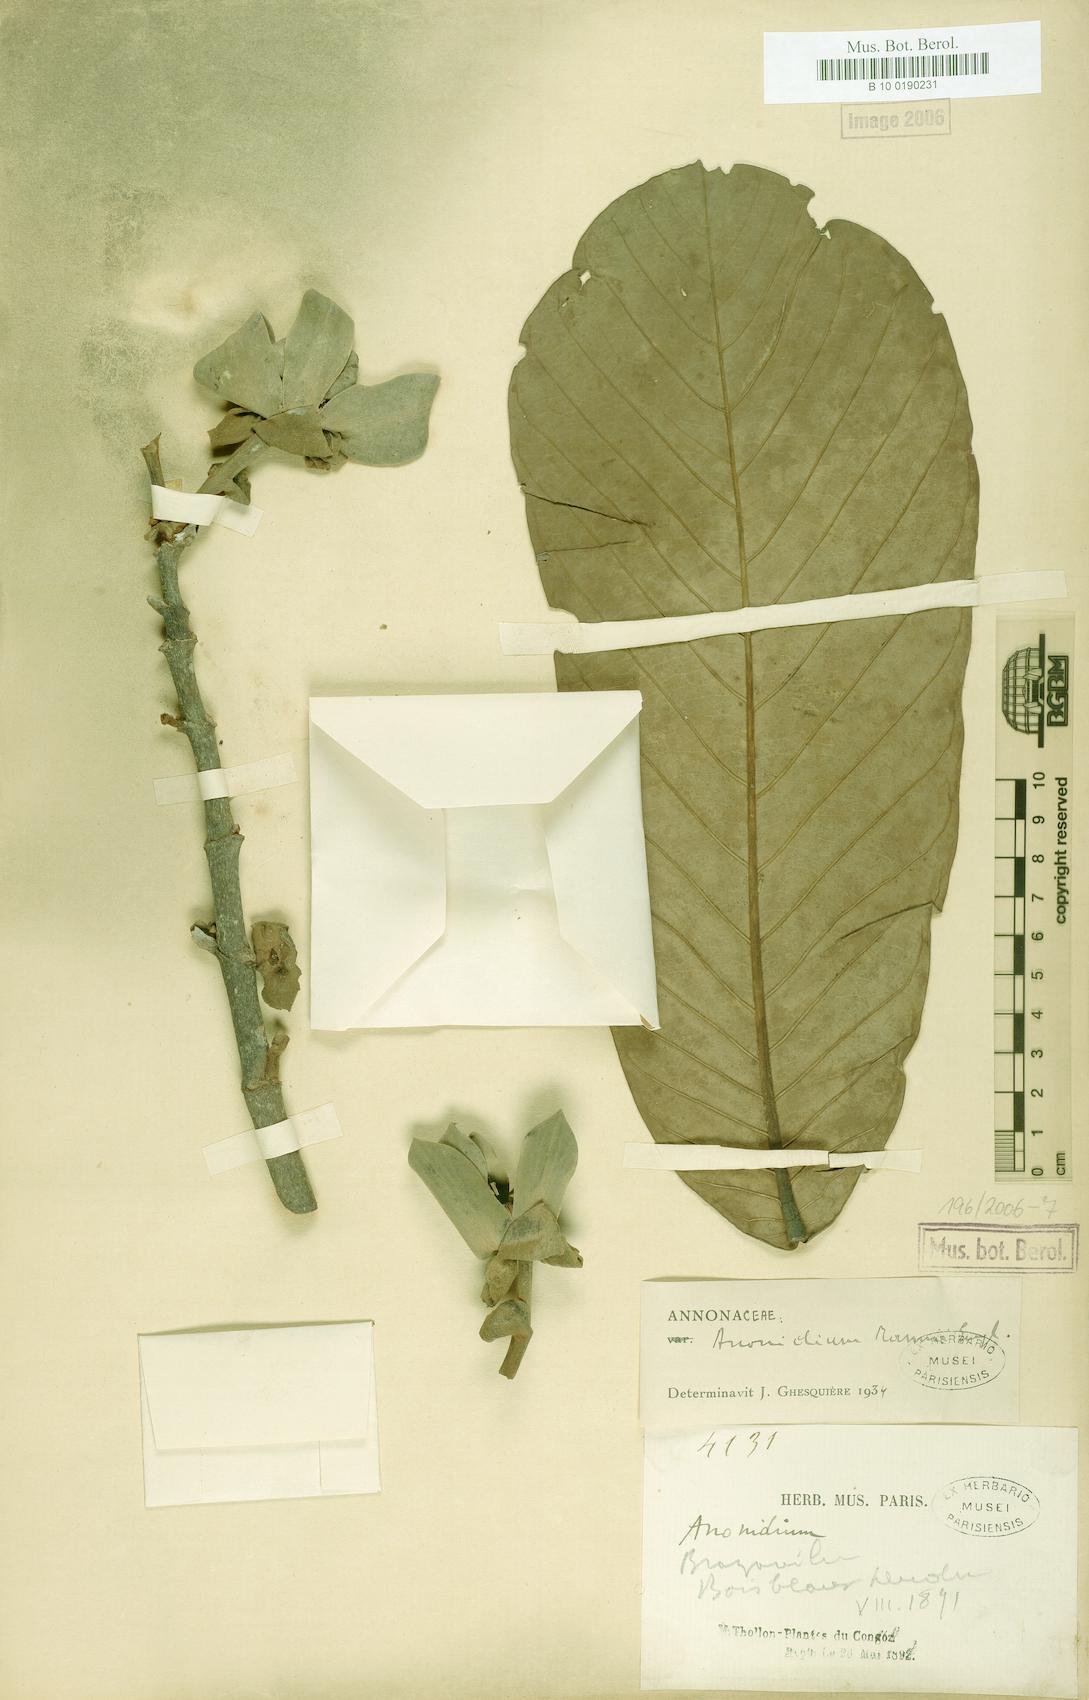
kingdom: Plantae
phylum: Tracheophyta
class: Magnoliopsida
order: Magnoliales
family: Annonaceae
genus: Anonidium
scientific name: Anonidium mannii
